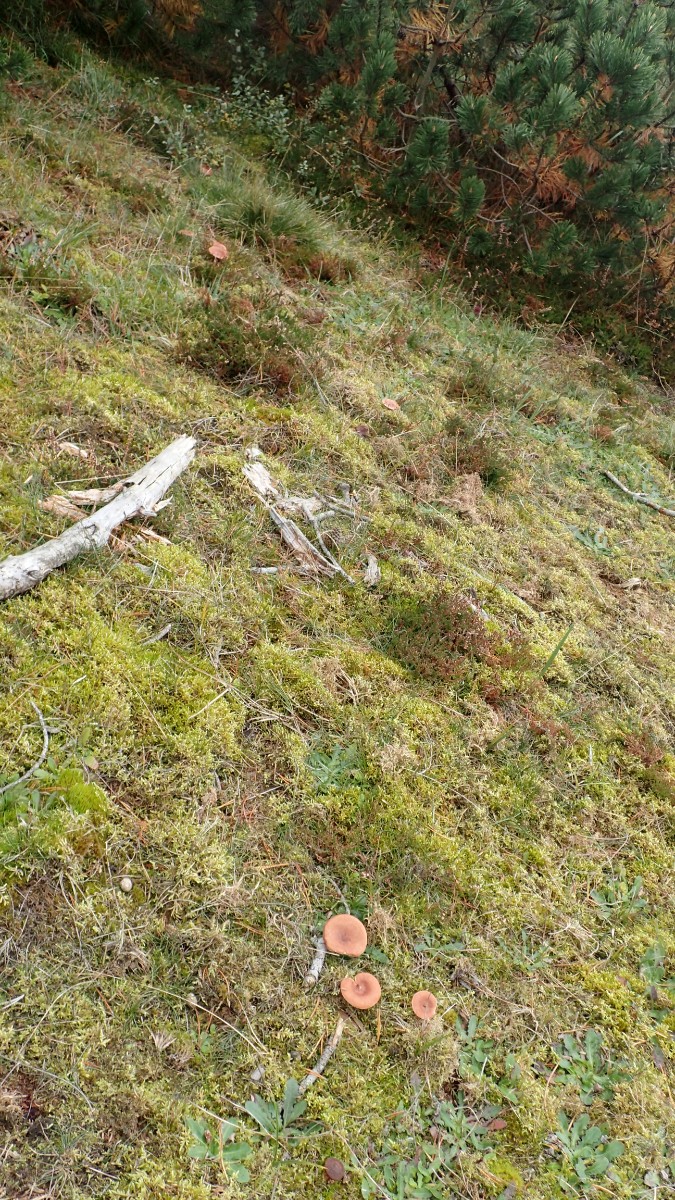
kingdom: Fungi
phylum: Basidiomycota
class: Agaricomycetes
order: Russulales
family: Russulaceae
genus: Lactarius
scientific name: Lactarius rufus
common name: rødbrun mælkehat
